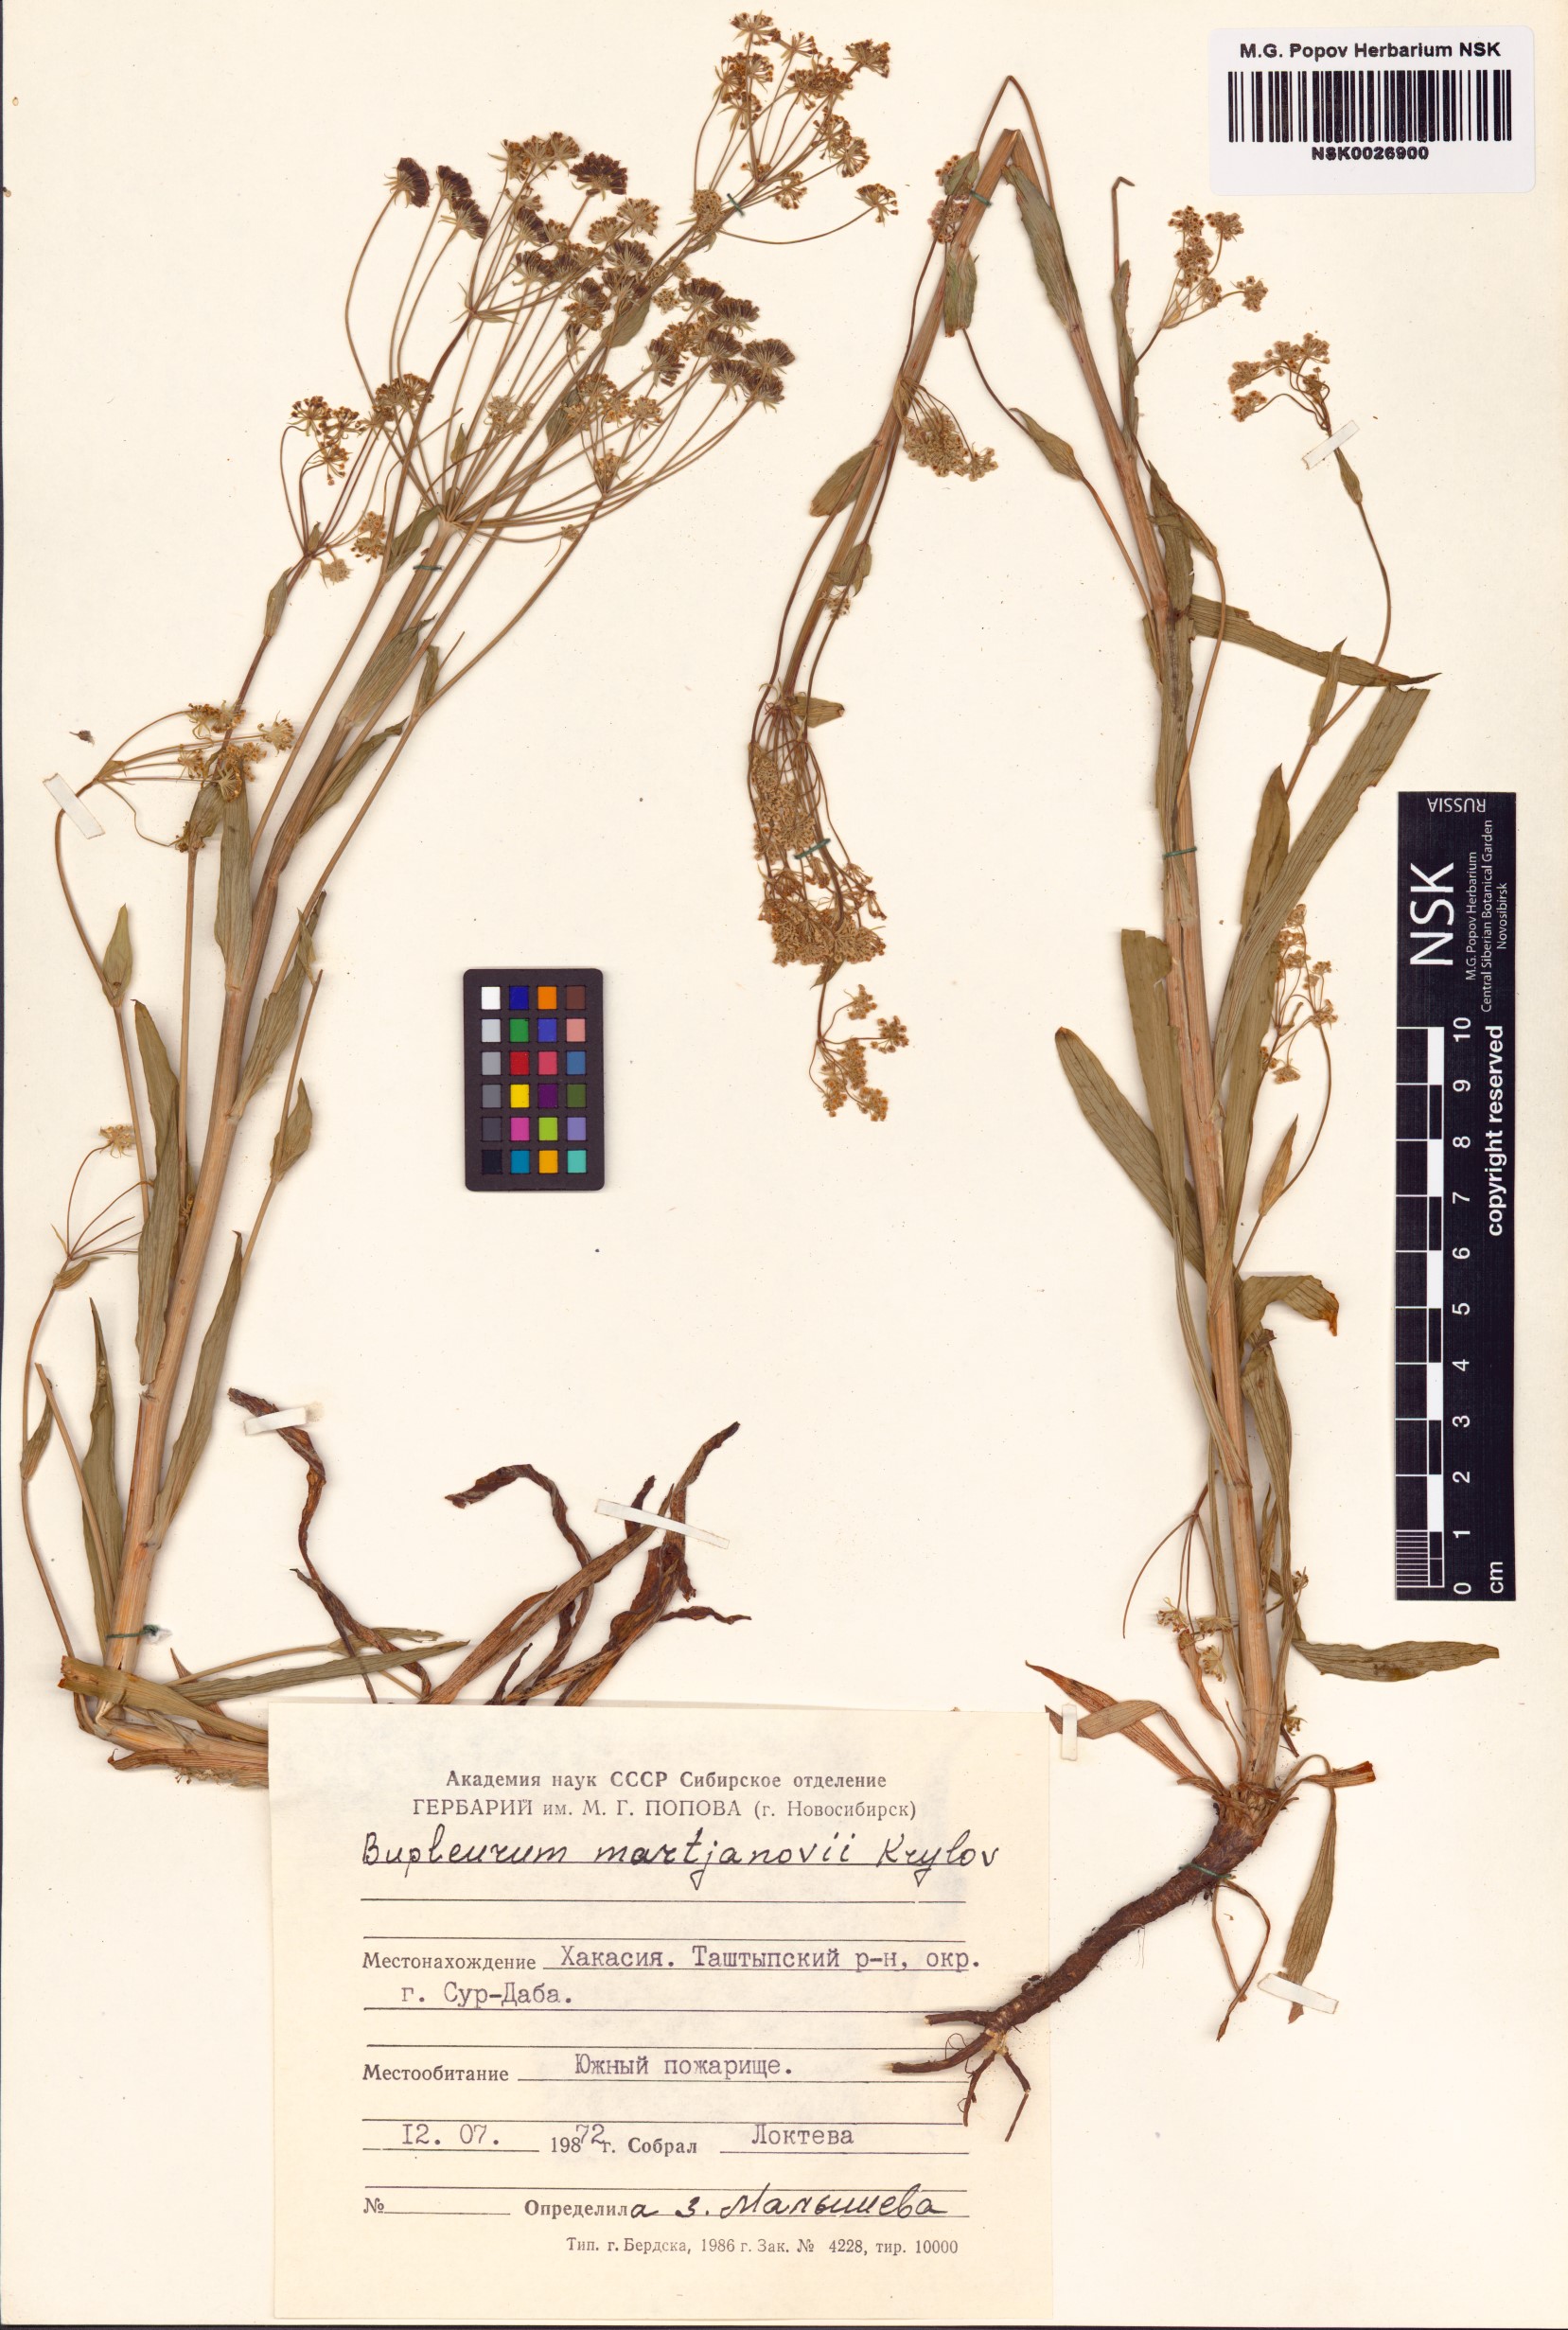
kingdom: Plantae
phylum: Tracheophyta
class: Magnoliopsida
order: Apiales
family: Apiaceae
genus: Bupleurum
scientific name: Bupleurum martjanovii
